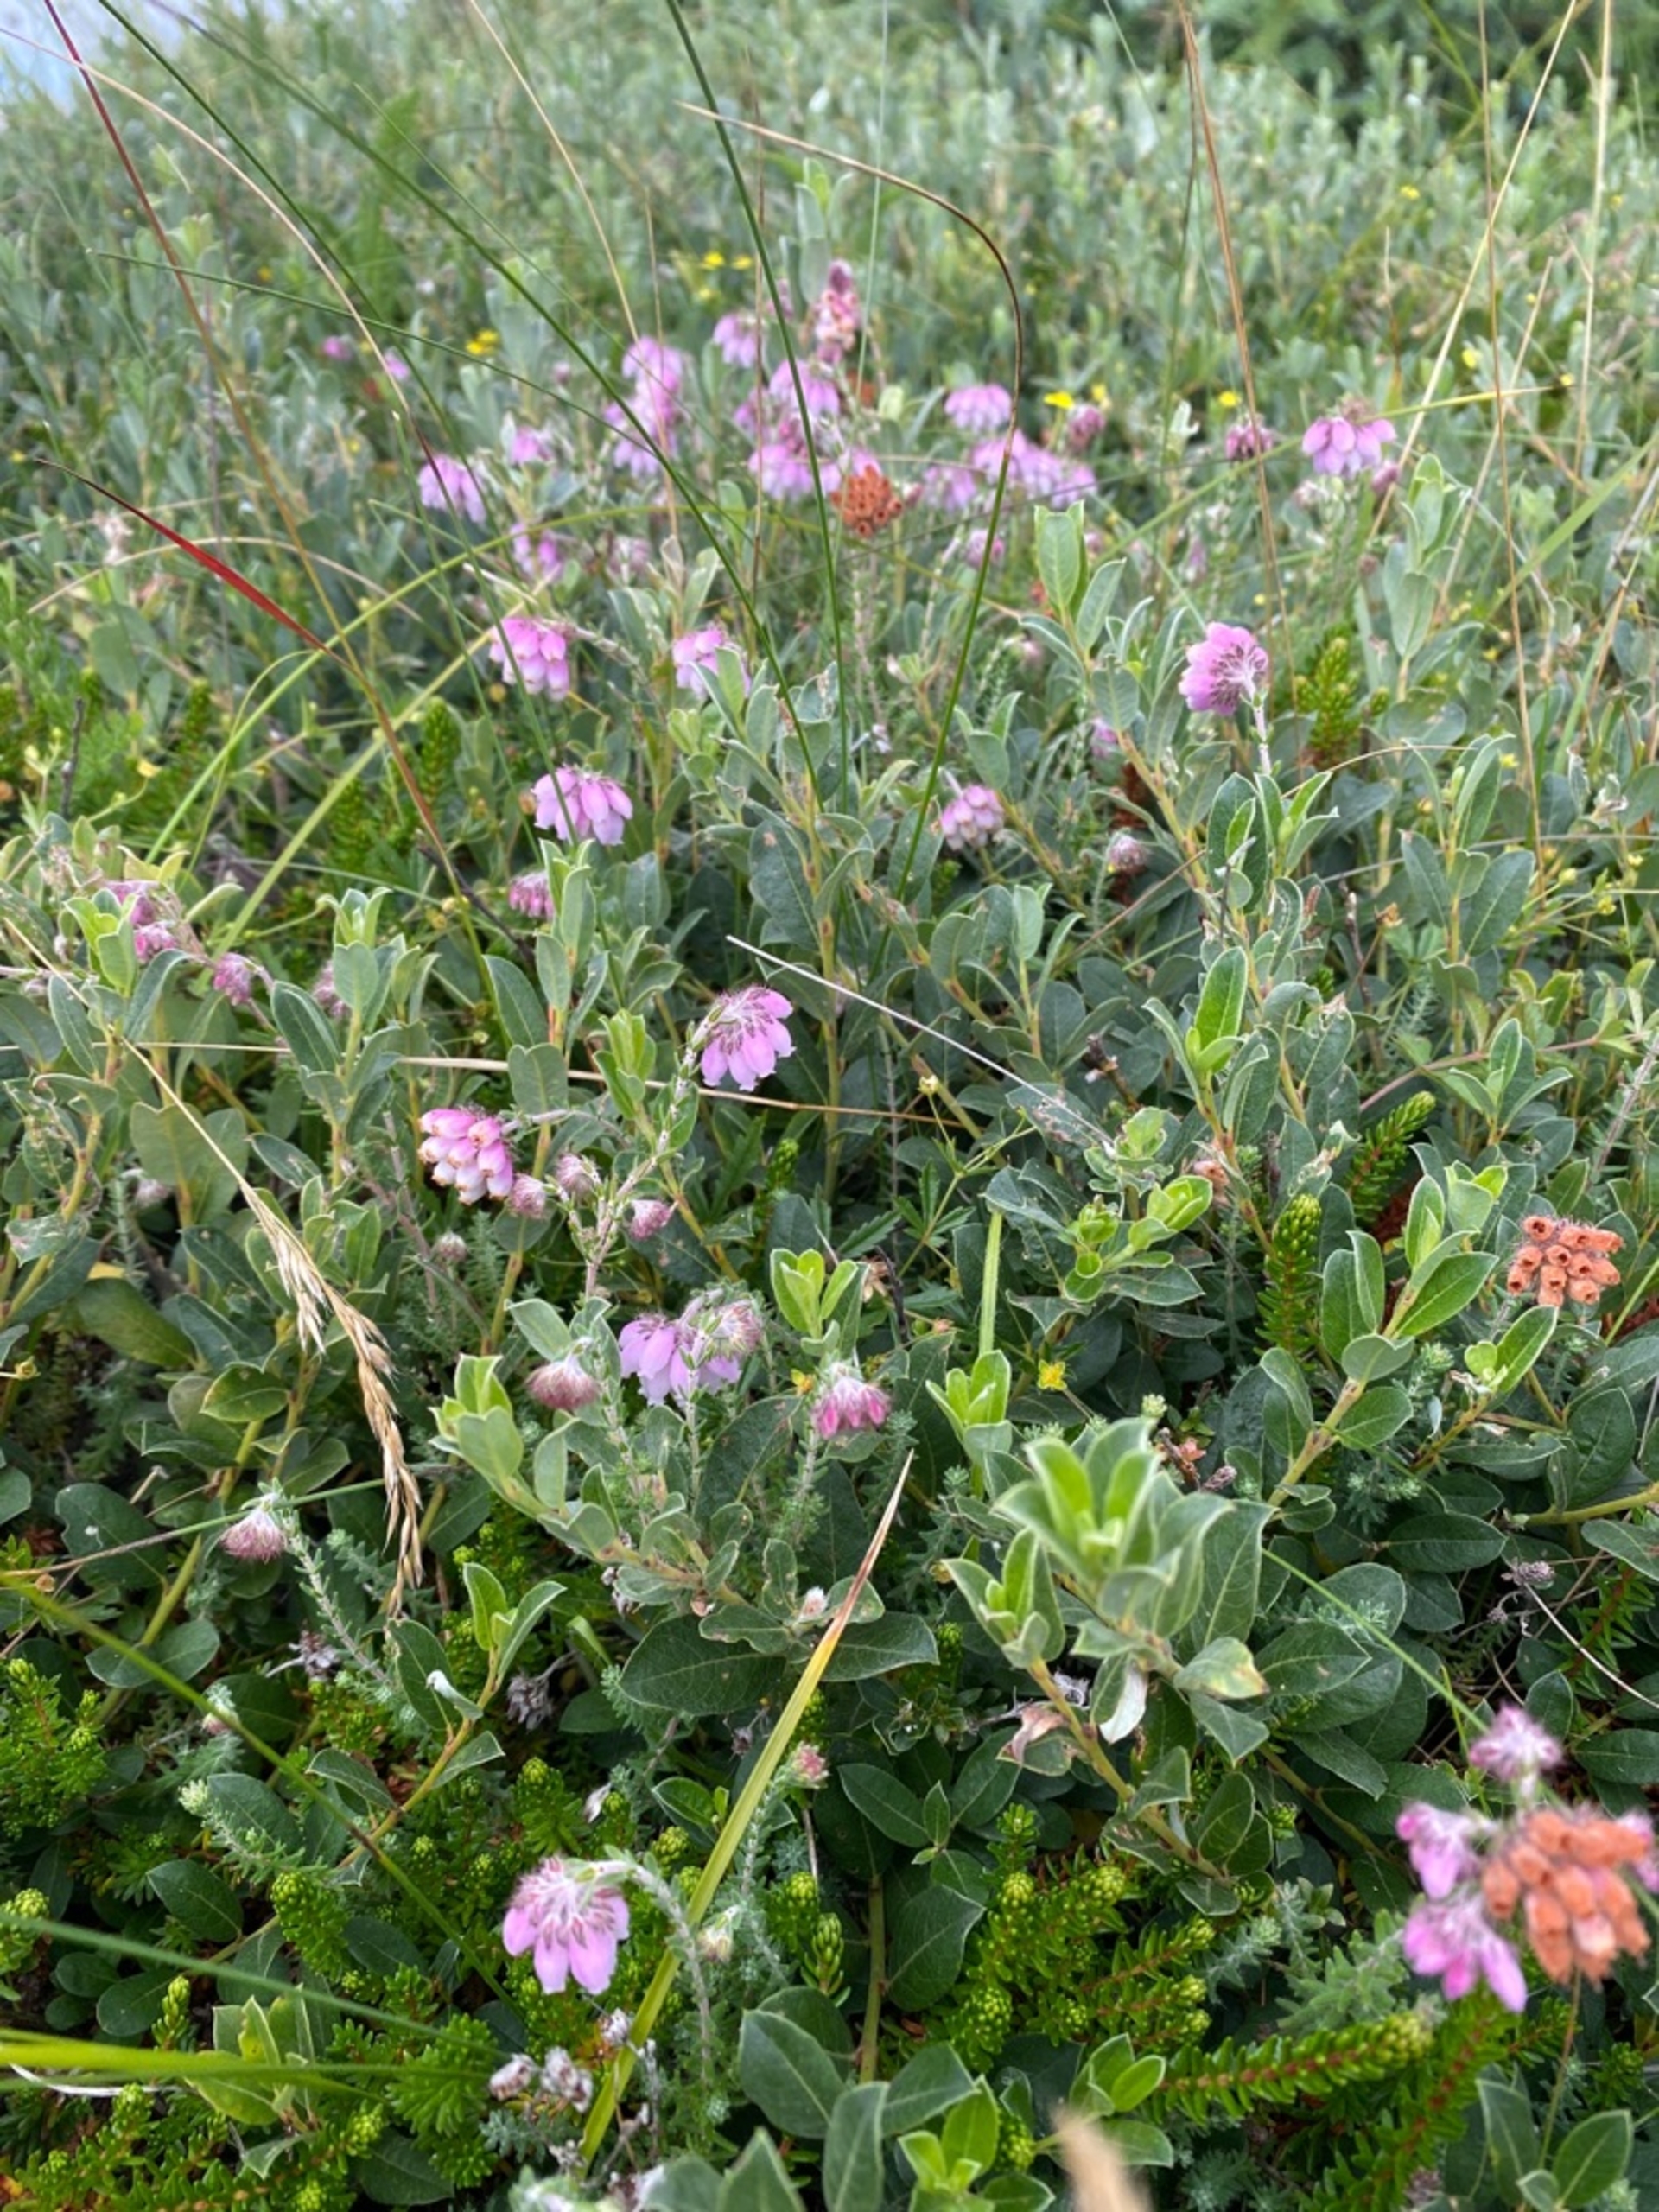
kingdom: Plantae
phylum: Tracheophyta
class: Magnoliopsida
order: Ericales
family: Ericaceae
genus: Erica
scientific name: Erica tetralix
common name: Klokkelyng
